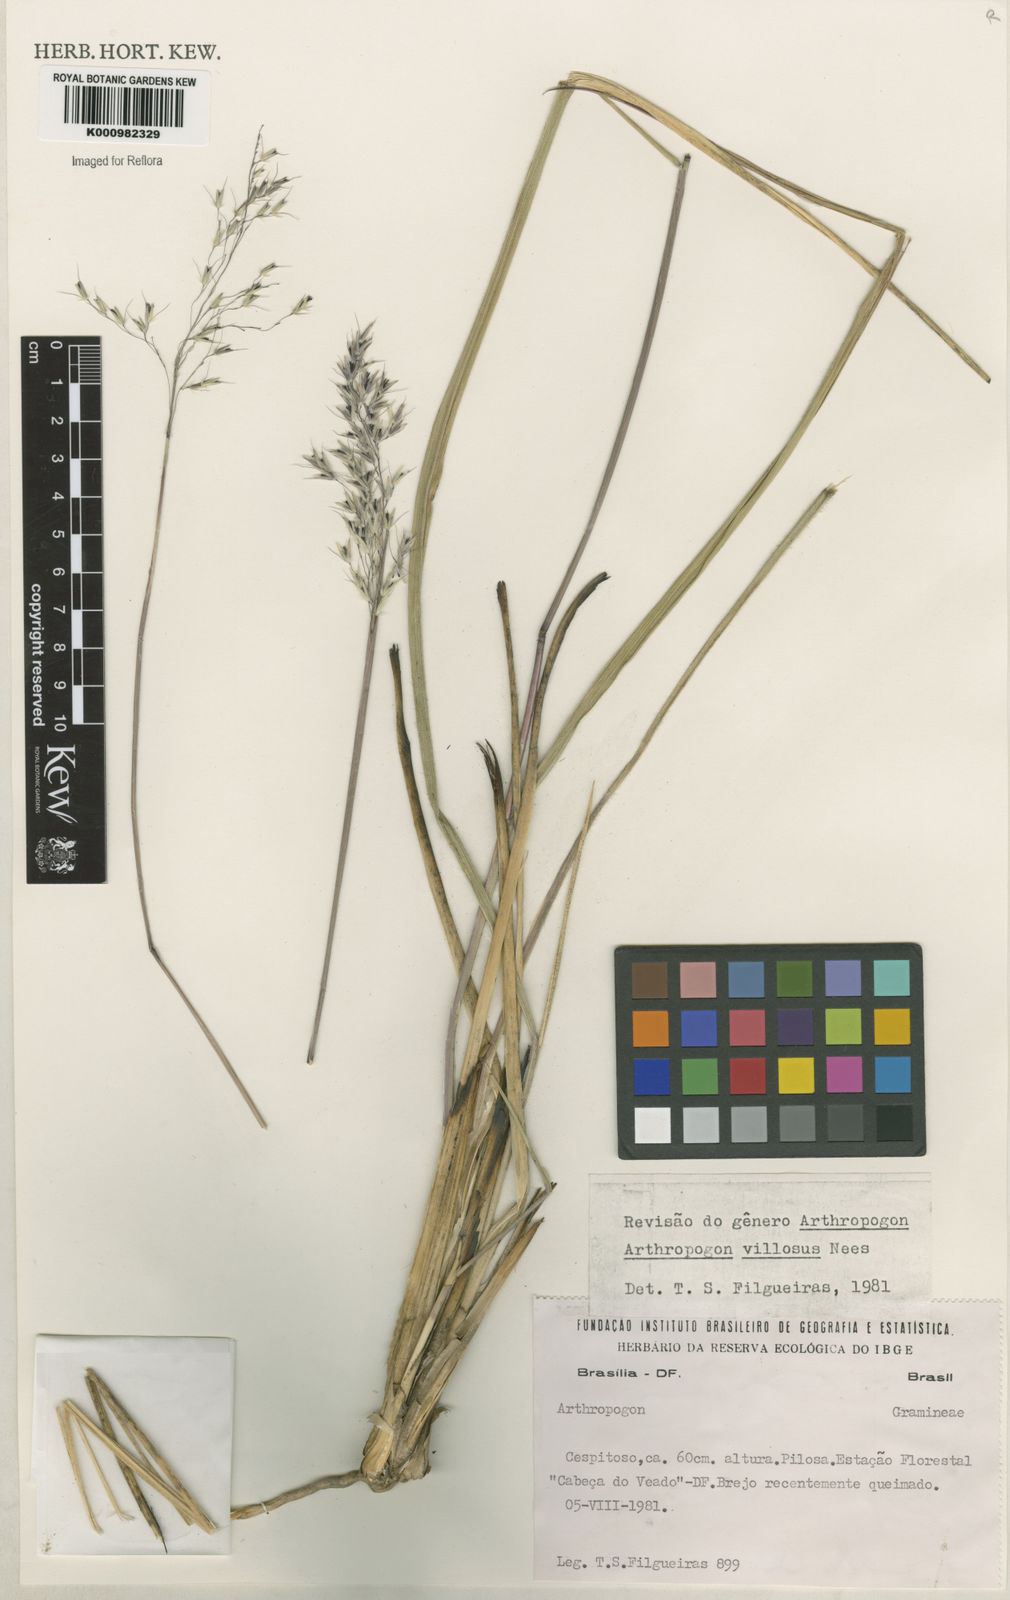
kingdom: Plantae
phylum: Tracheophyta
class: Liliopsida
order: Poales
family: Poaceae
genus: Arthropogon
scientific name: Arthropogon villosus
